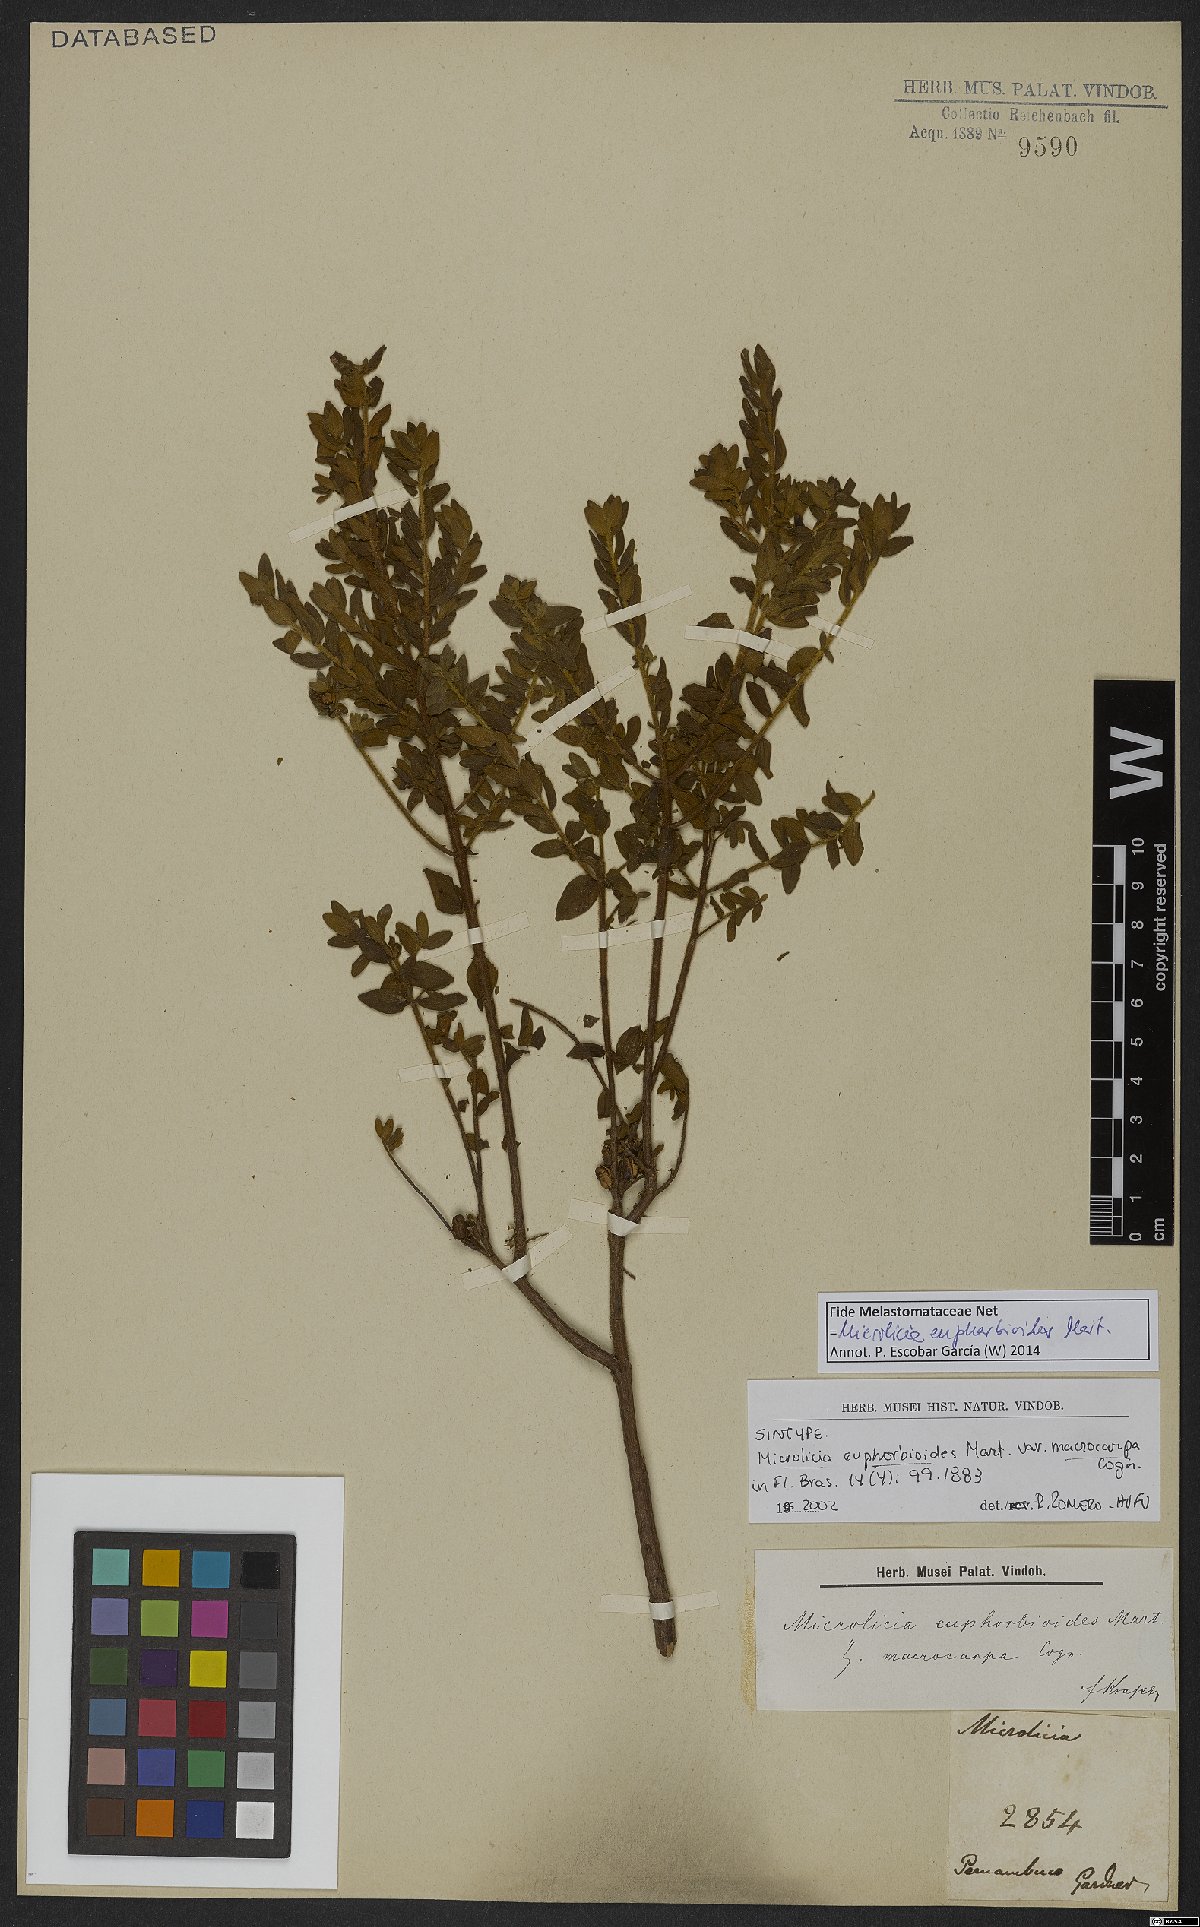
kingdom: Plantae
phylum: Tracheophyta
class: Magnoliopsida
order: Myrtales
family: Melastomataceae
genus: Microlicia
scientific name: Microlicia euphorbioides
